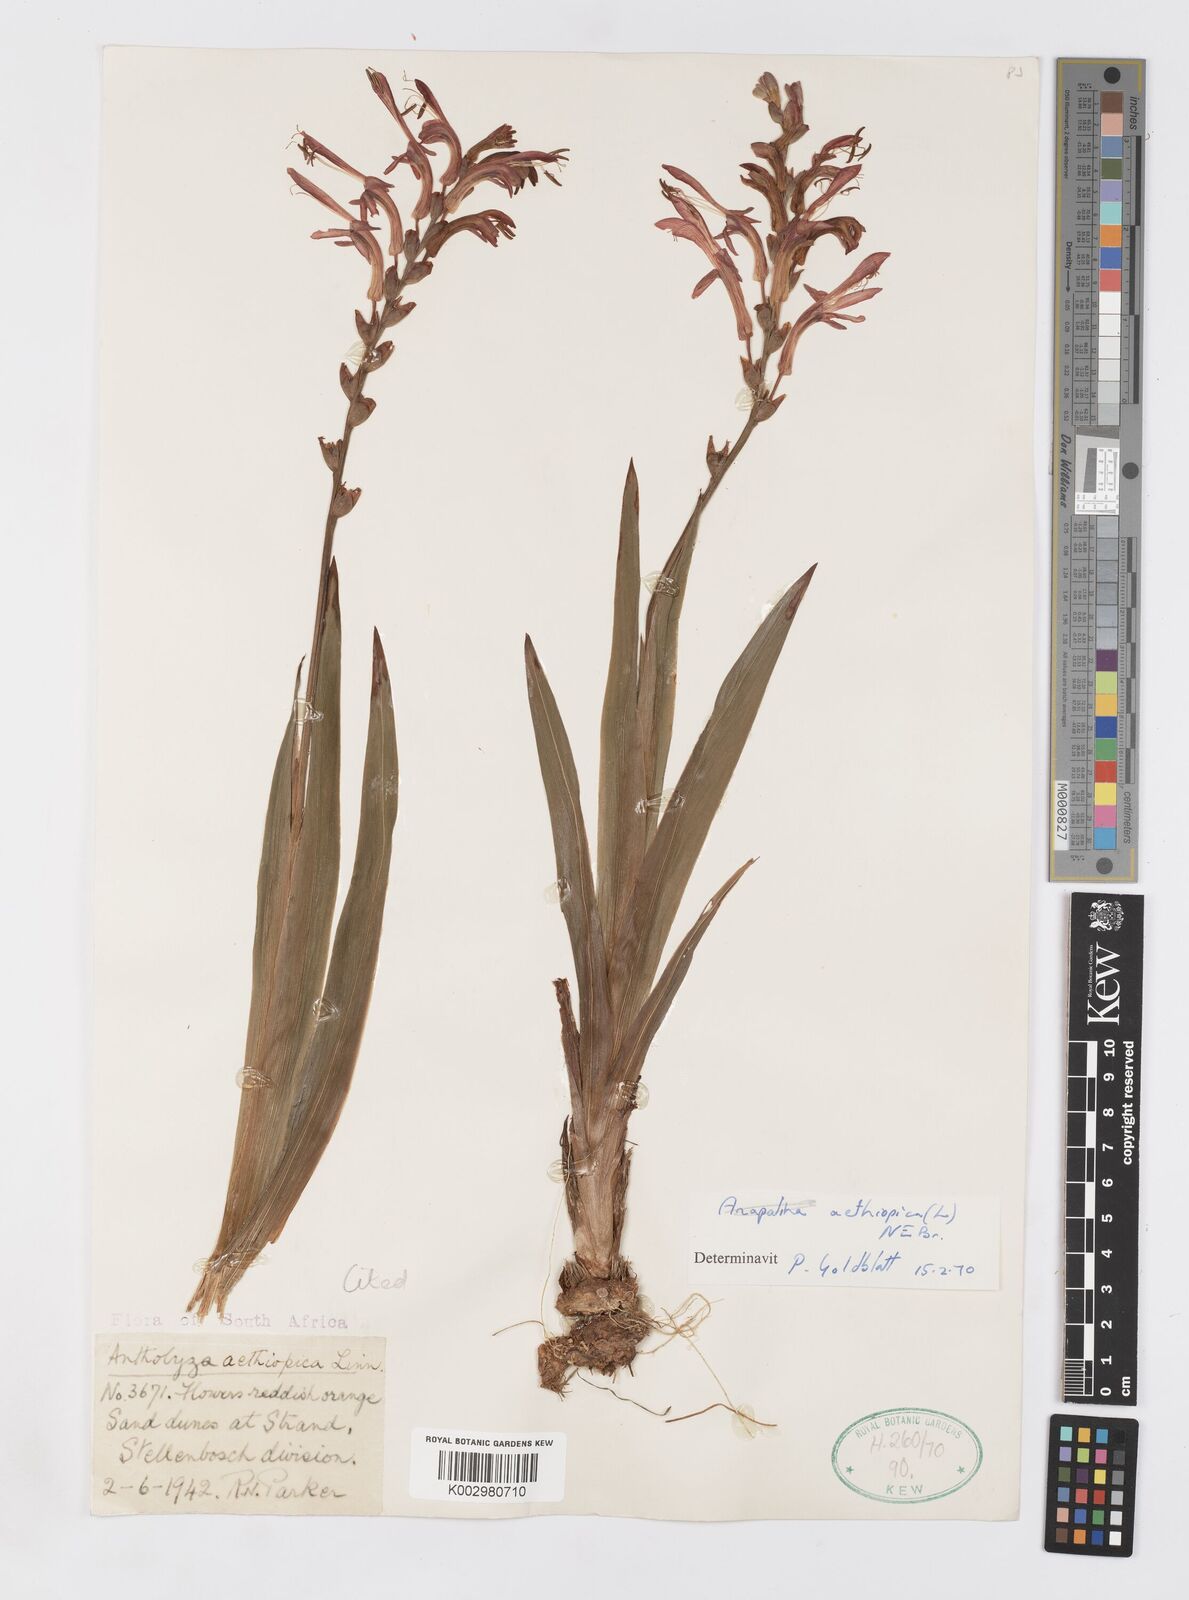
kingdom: Plantae
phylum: Tracheophyta
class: Liliopsida
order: Asparagales
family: Iridaceae
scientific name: Iridaceae
